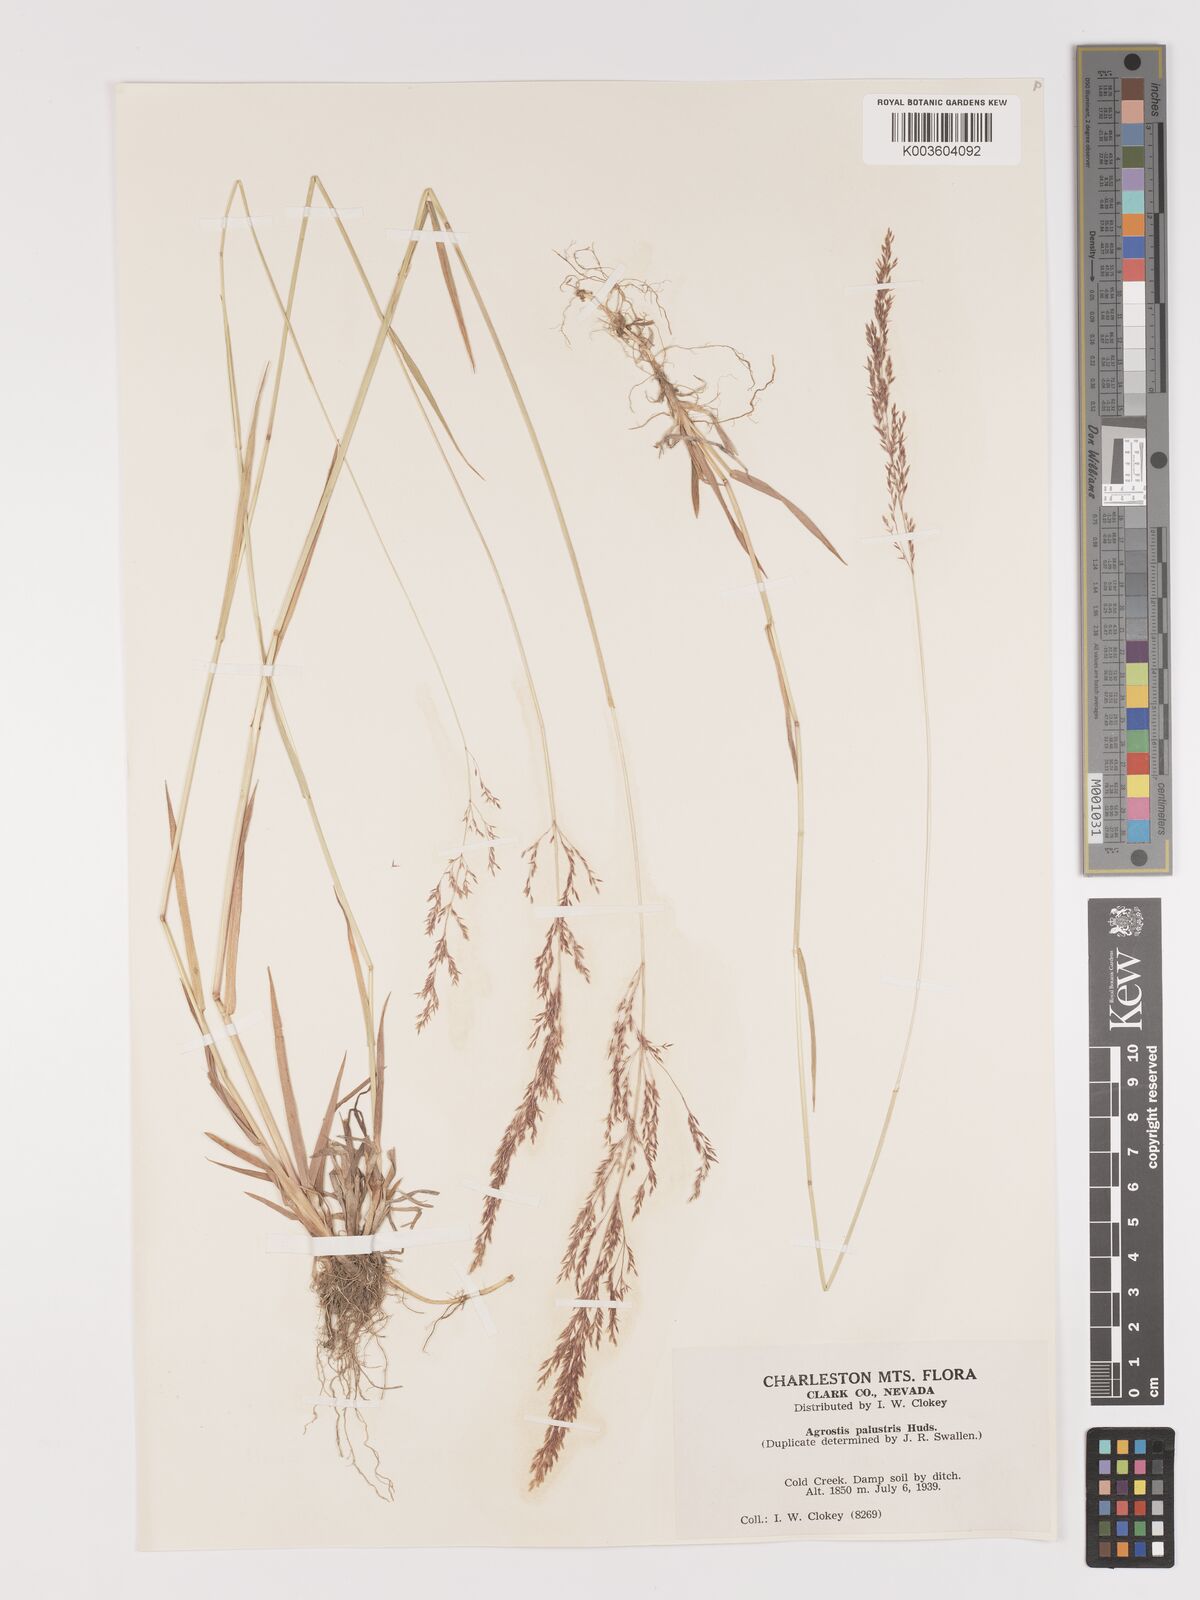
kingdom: Plantae
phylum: Tracheophyta
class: Liliopsida
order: Poales
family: Poaceae
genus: Agrostis
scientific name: Agrostis gigantea
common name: Black bent
